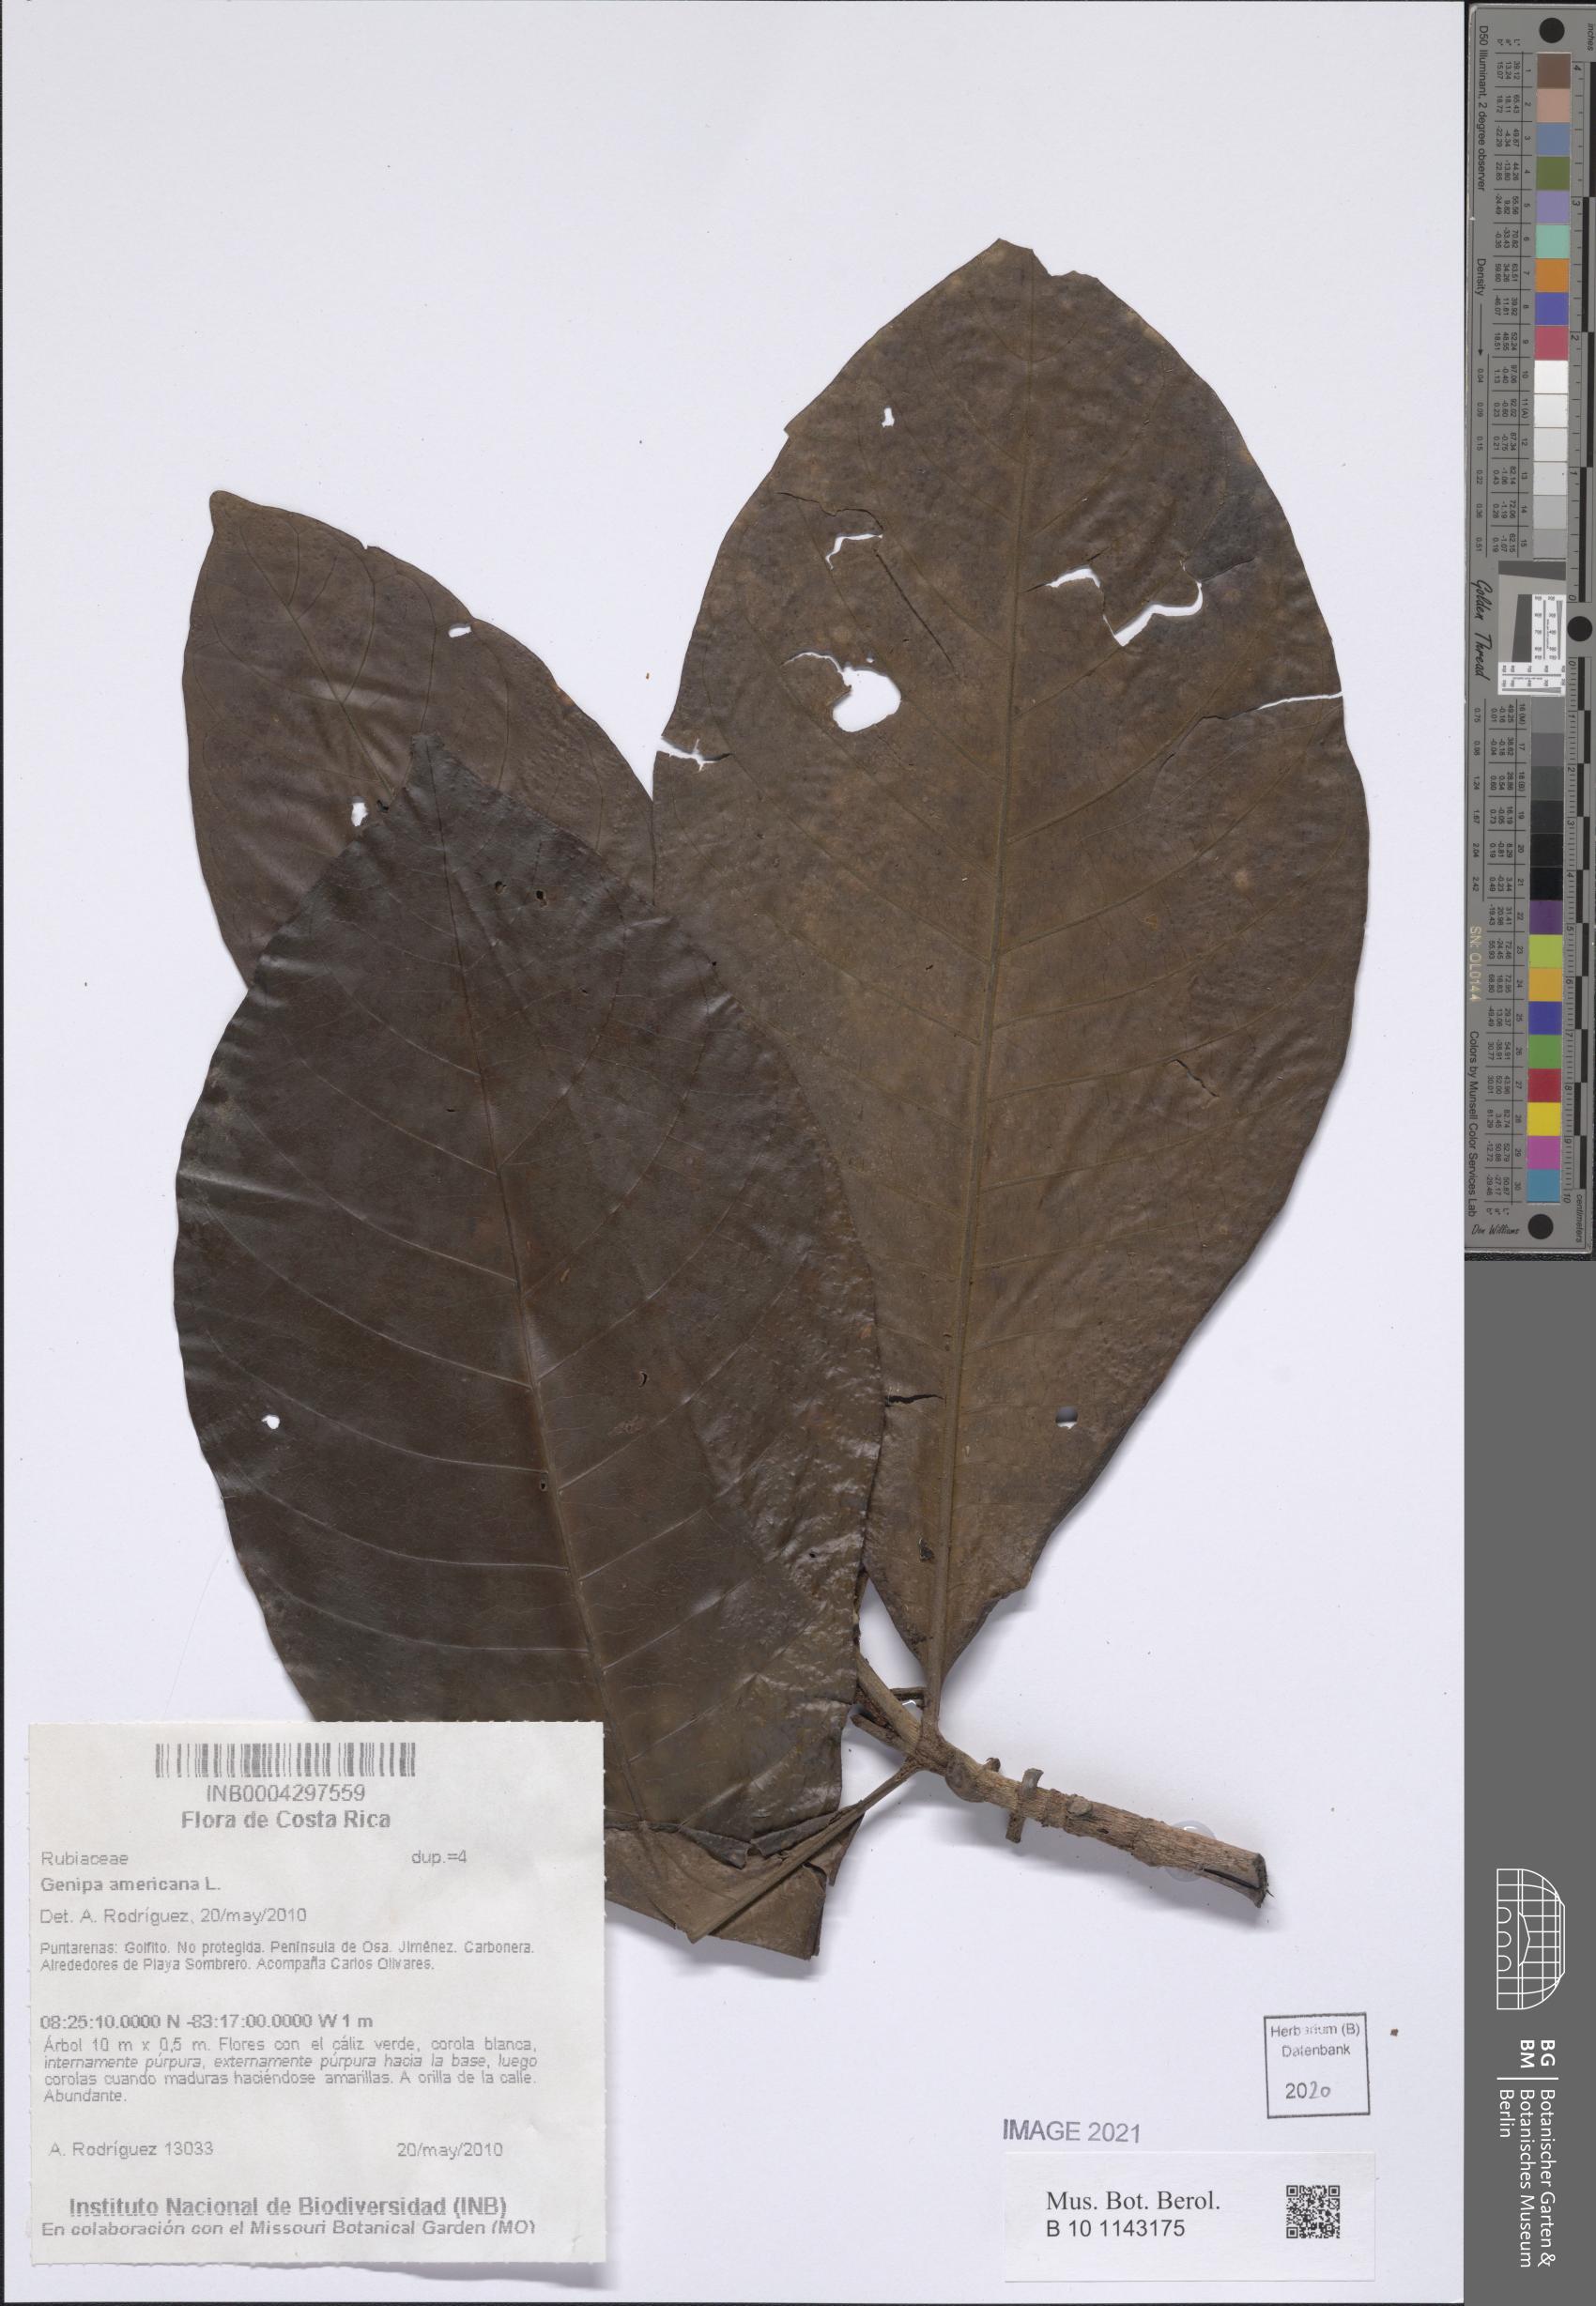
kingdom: Plantae
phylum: Tracheophyta
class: Magnoliopsida
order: Gentianales
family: Rubiaceae
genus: Genipa
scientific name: Genipa americana
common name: Genipap
